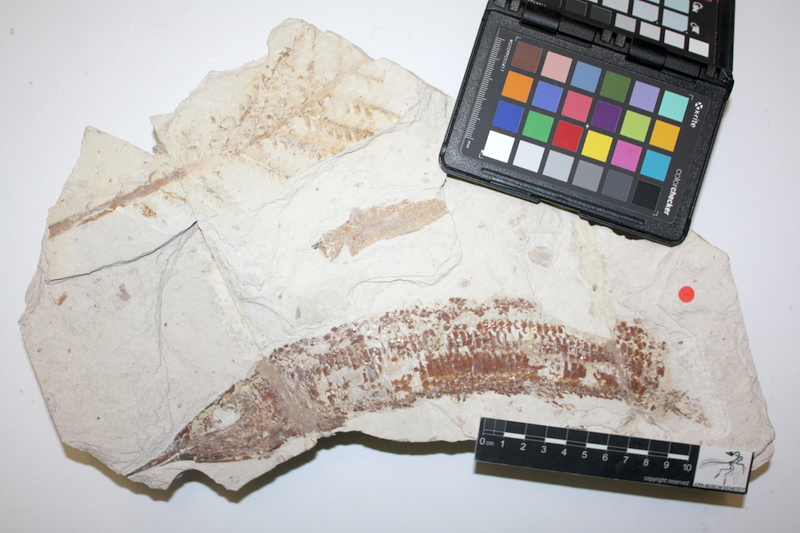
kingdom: Animalia
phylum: Chordata
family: Aspidorhynchidae
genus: Aspidorhynchus
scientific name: Aspidorhynchus acutirostris
